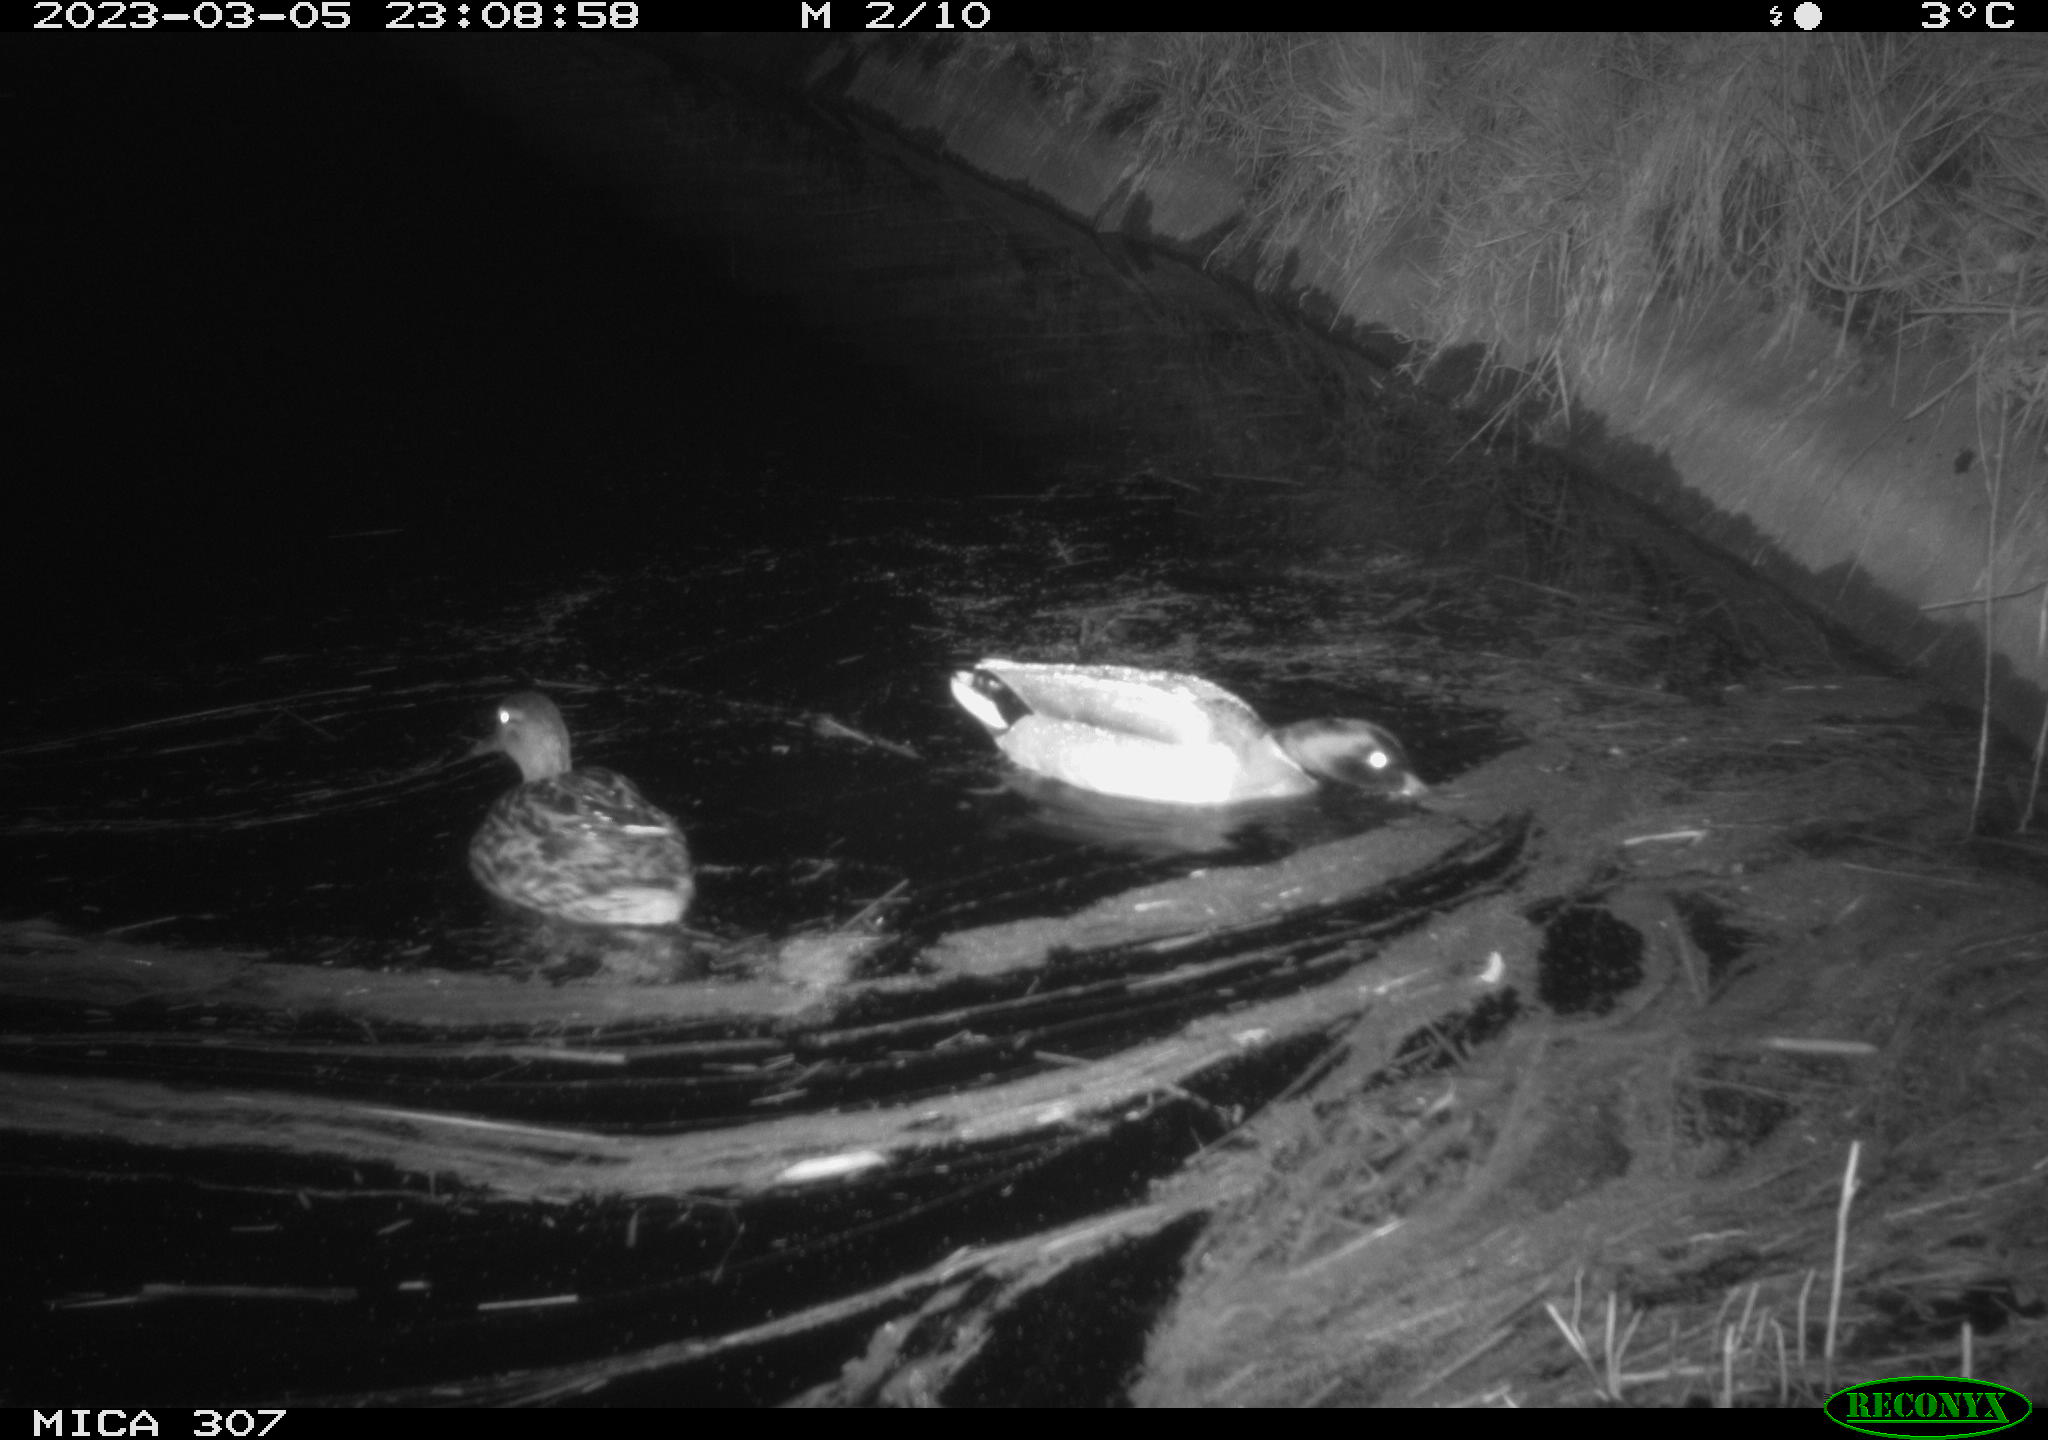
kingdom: Animalia
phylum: Chordata
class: Aves
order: Anseriformes
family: Anatidae
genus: Anas
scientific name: Anas
